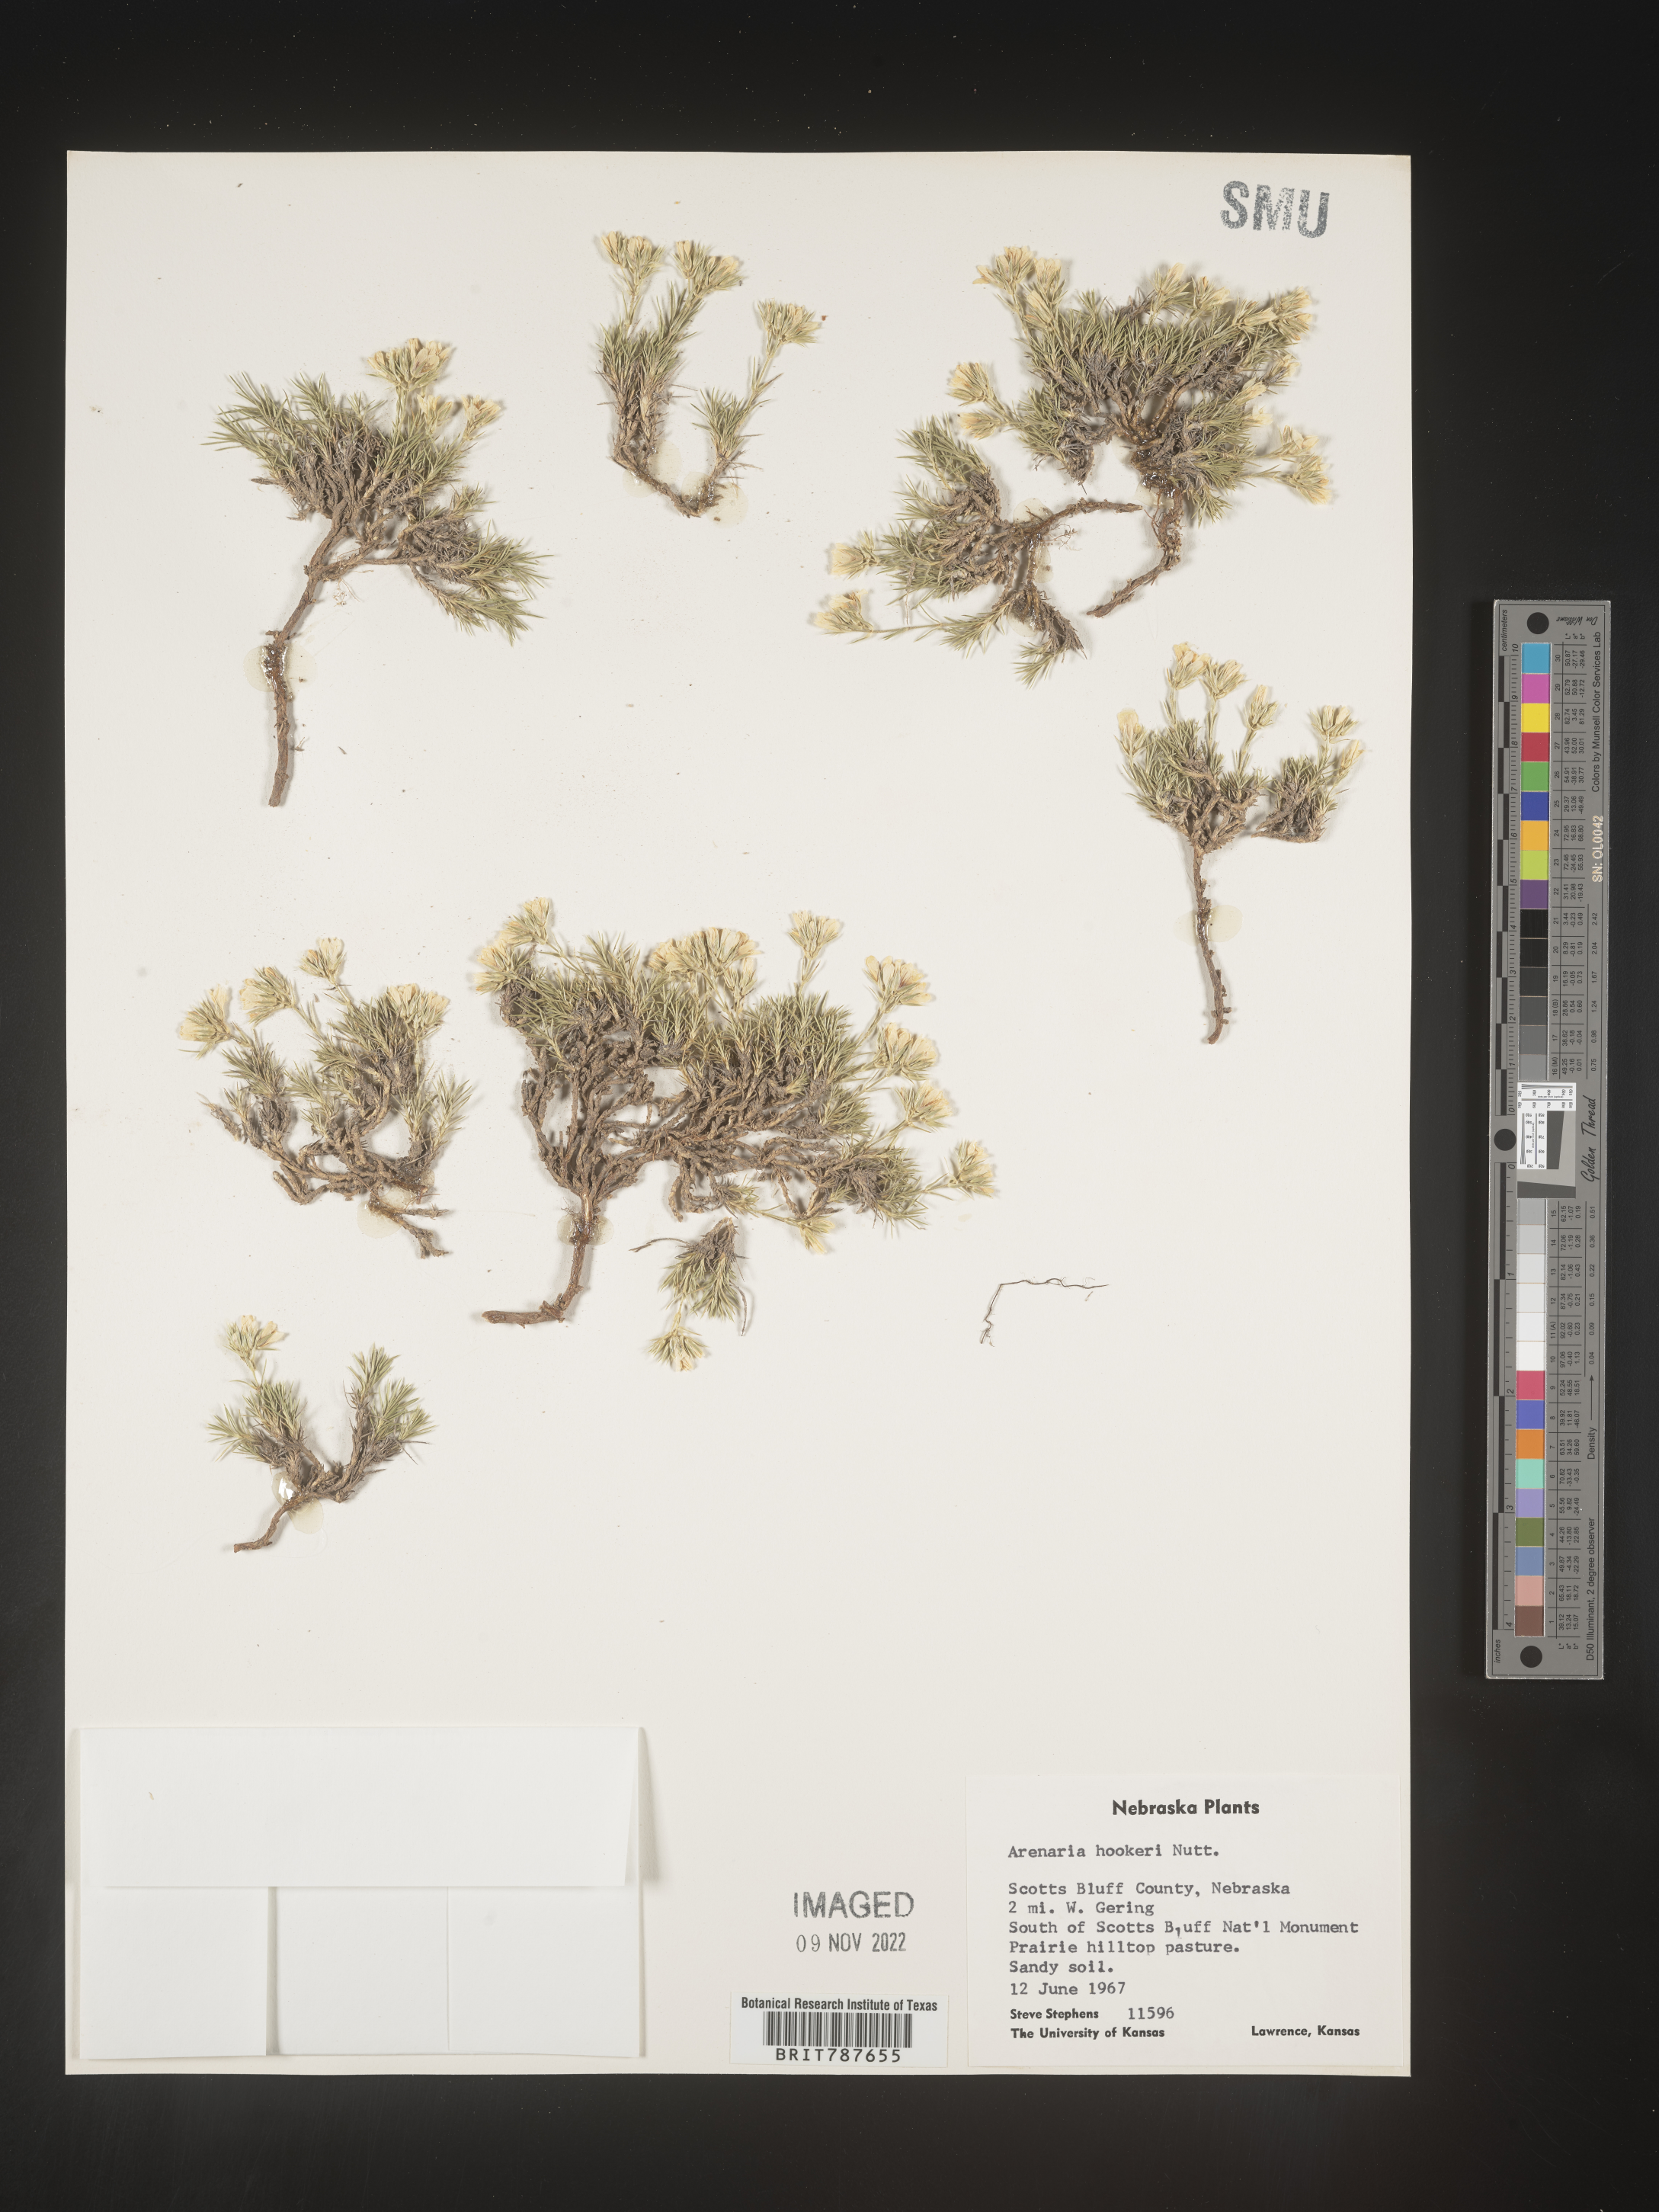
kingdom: Plantae
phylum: Tracheophyta
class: Magnoliopsida
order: Caryophyllales
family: Caryophyllaceae
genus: Arenaria
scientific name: Arenaria
